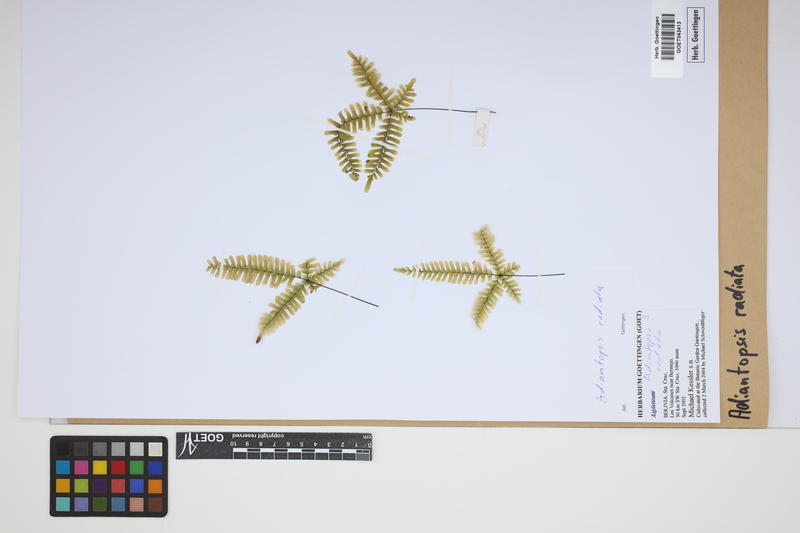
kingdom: Plantae
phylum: Tracheophyta
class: Polypodiopsida
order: Polypodiales
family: Pteridaceae
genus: Adiantopsis
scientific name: Adiantopsis radiata
